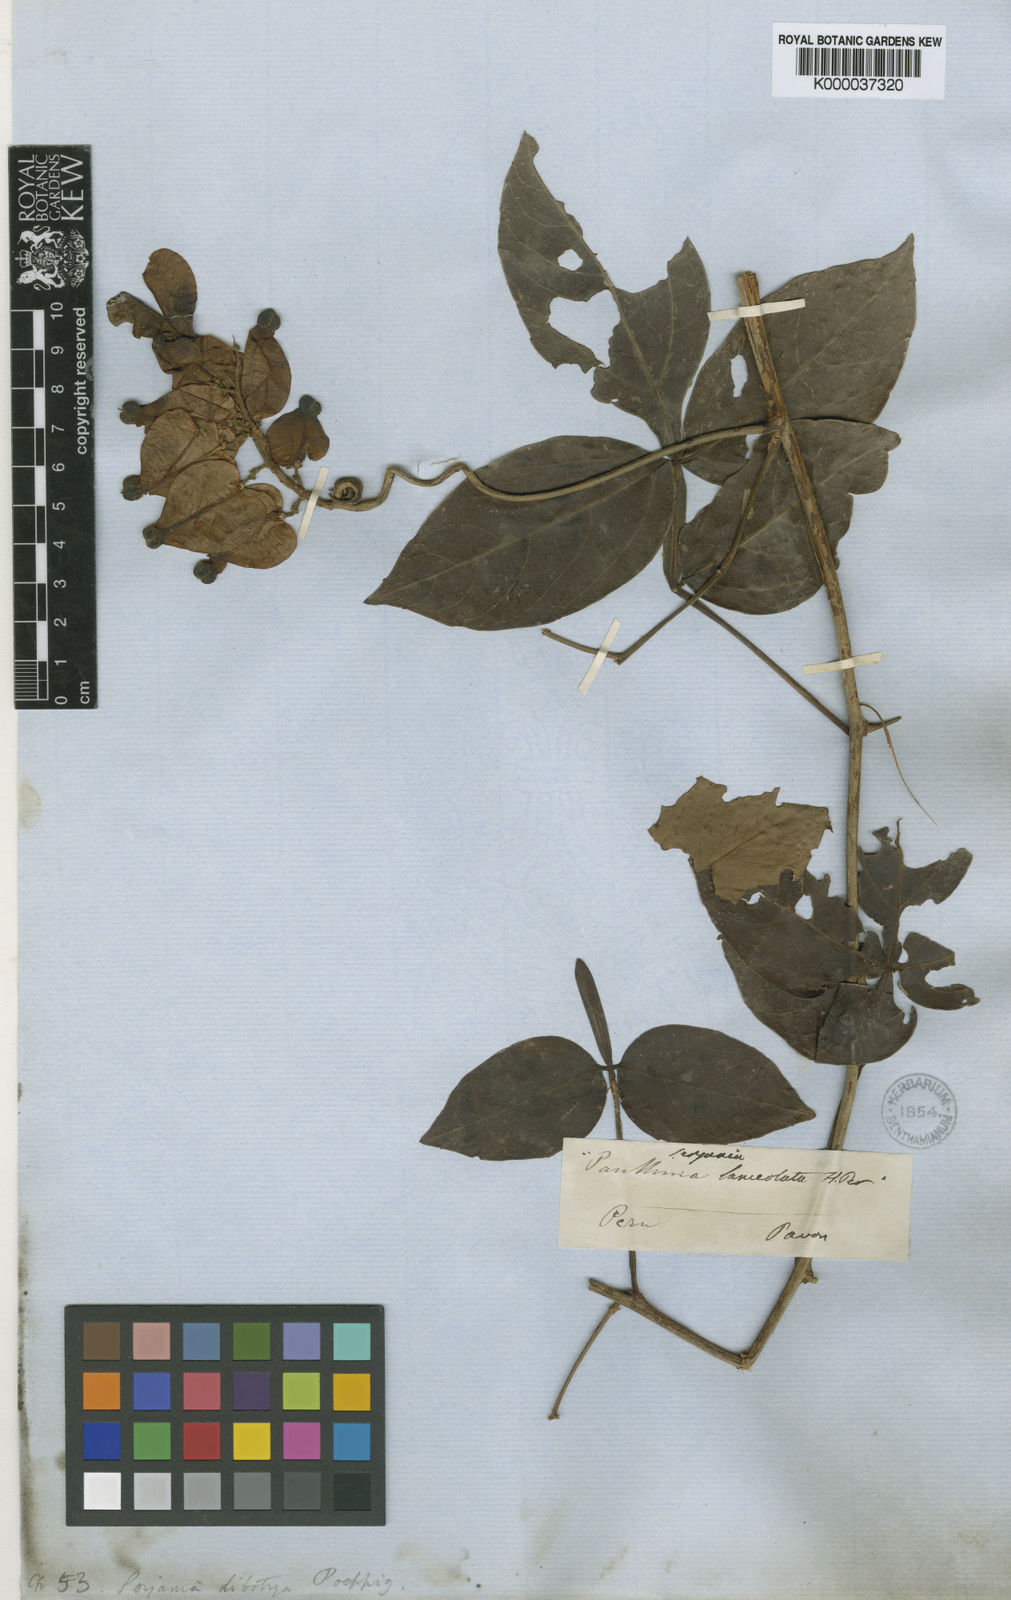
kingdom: Plantae
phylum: Tracheophyta
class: Magnoliopsida
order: Sapindales
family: Sapindaceae
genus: Serjania
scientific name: Serjania dibotrya
